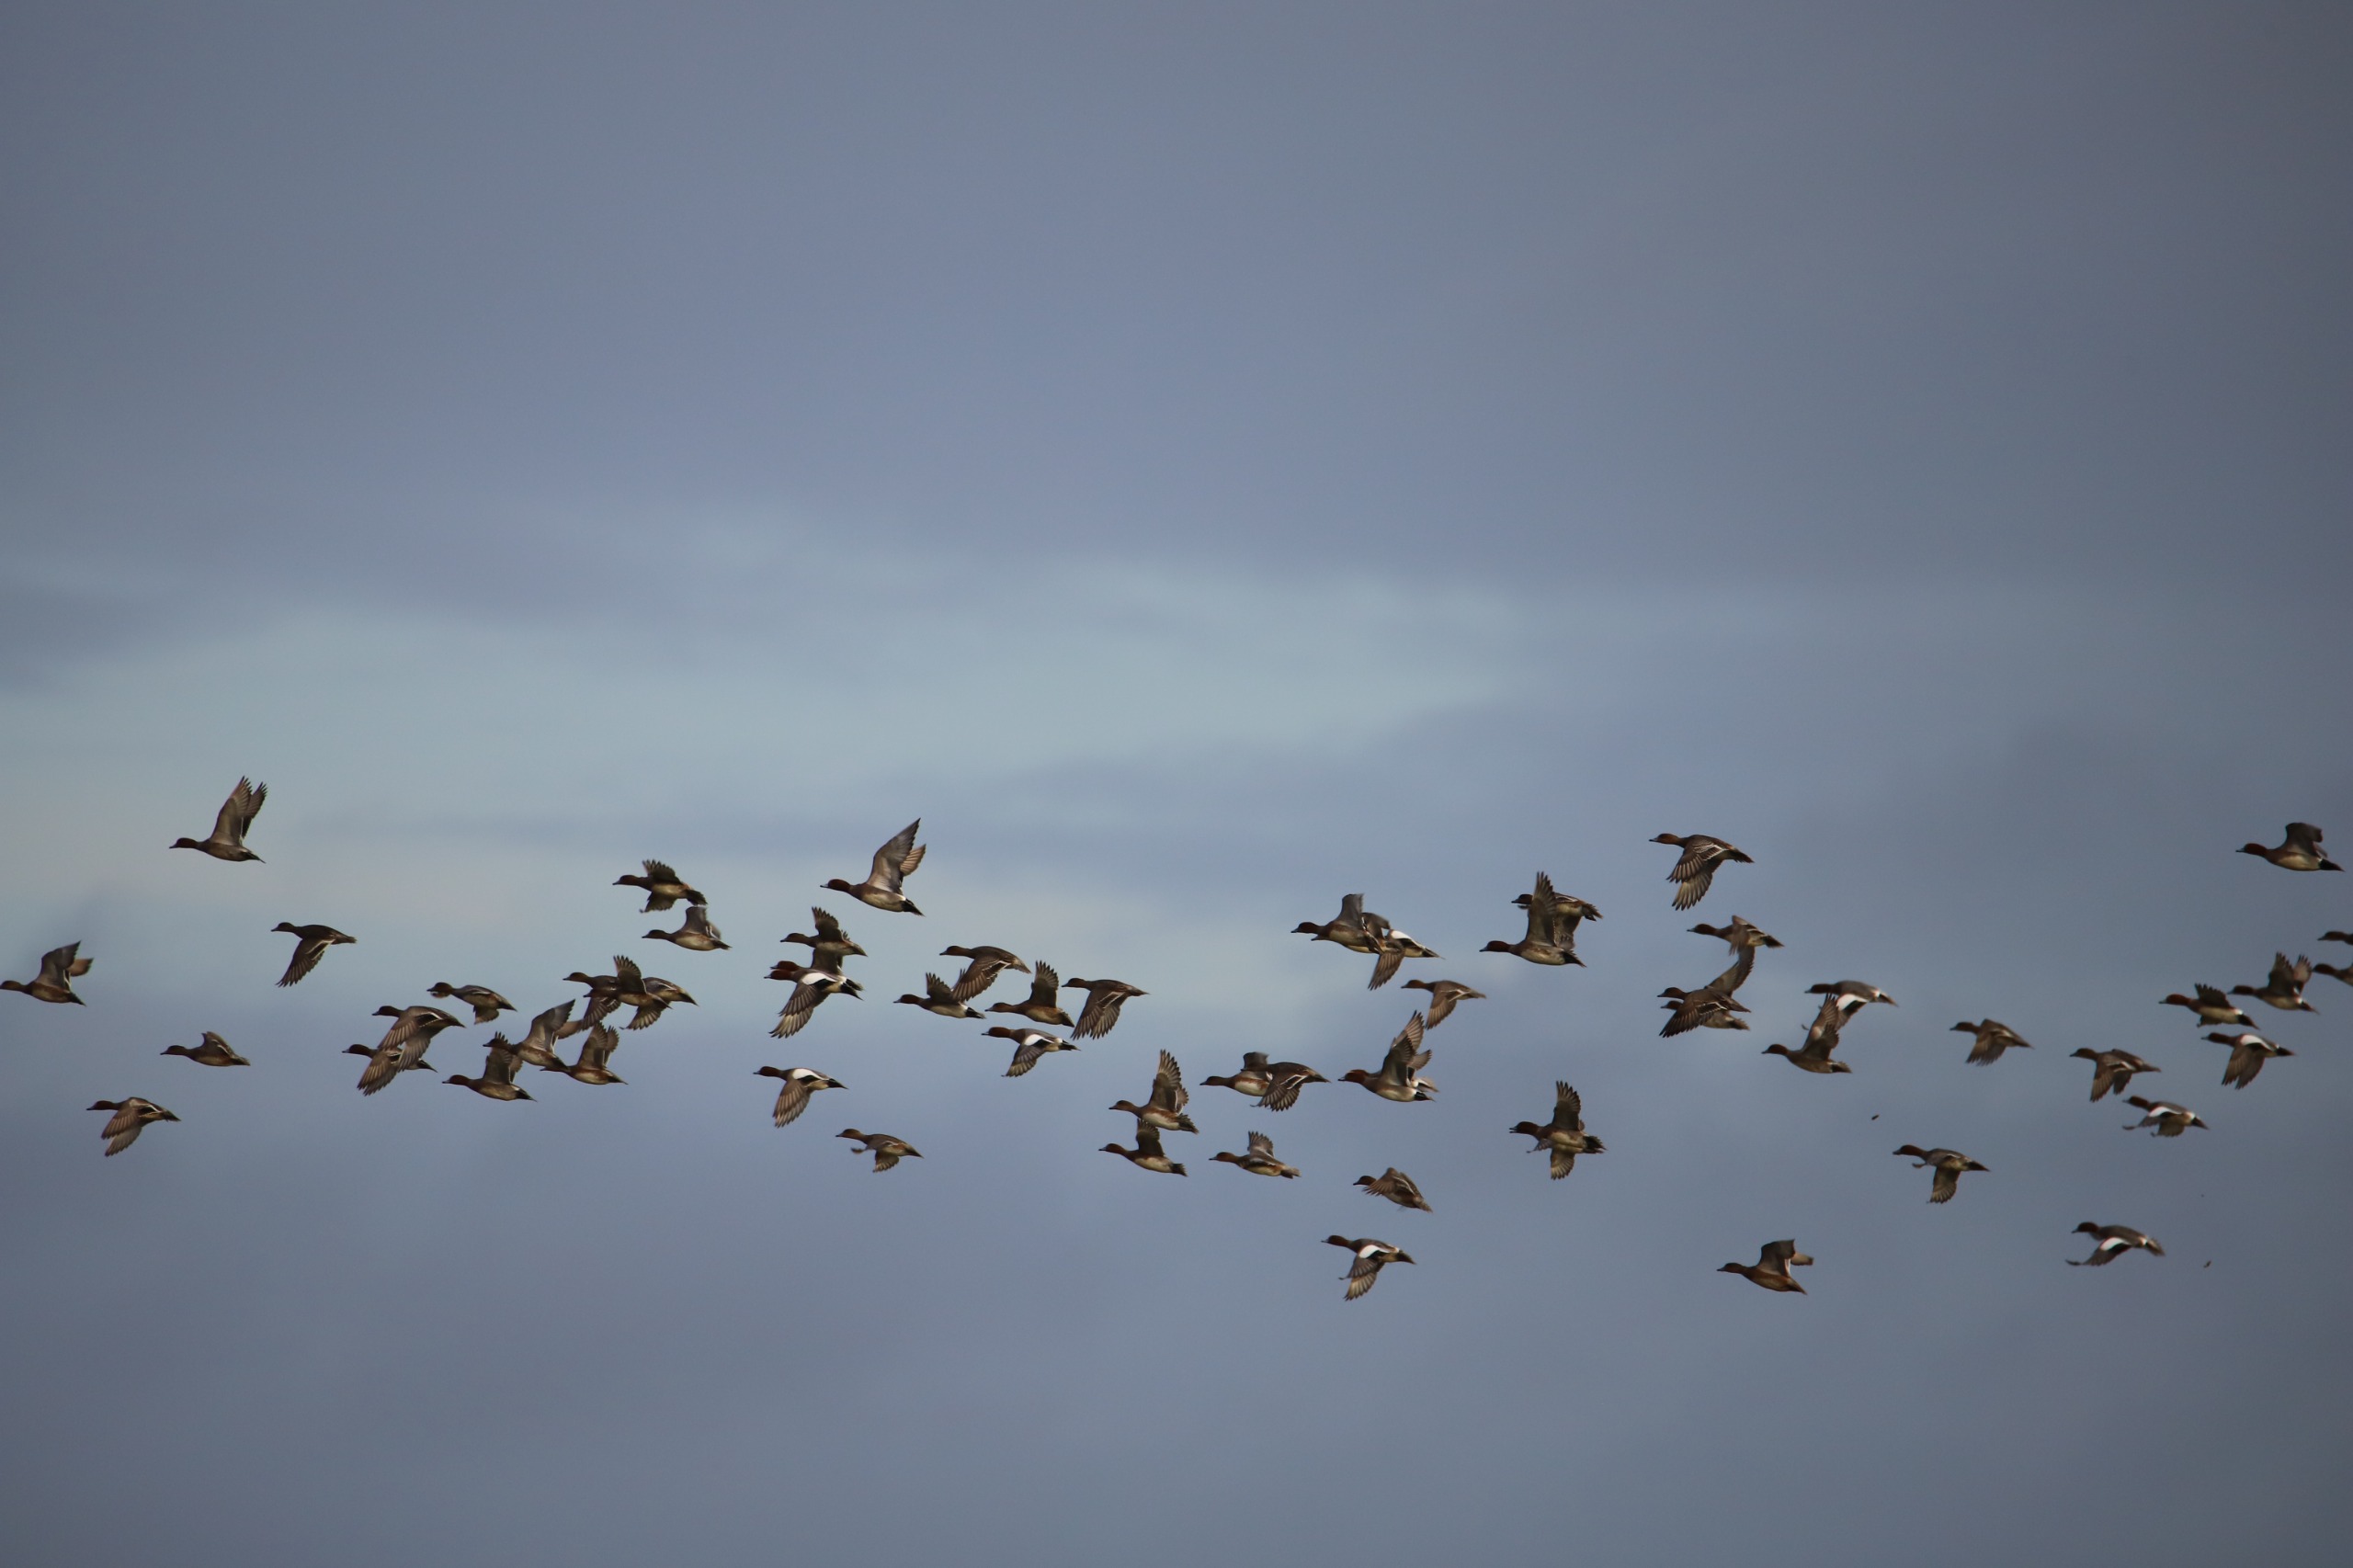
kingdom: Animalia
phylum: Chordata
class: Aves
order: Anseriformes
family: Anatidae
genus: Mareca
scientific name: Mareca penelope
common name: Pibeand
